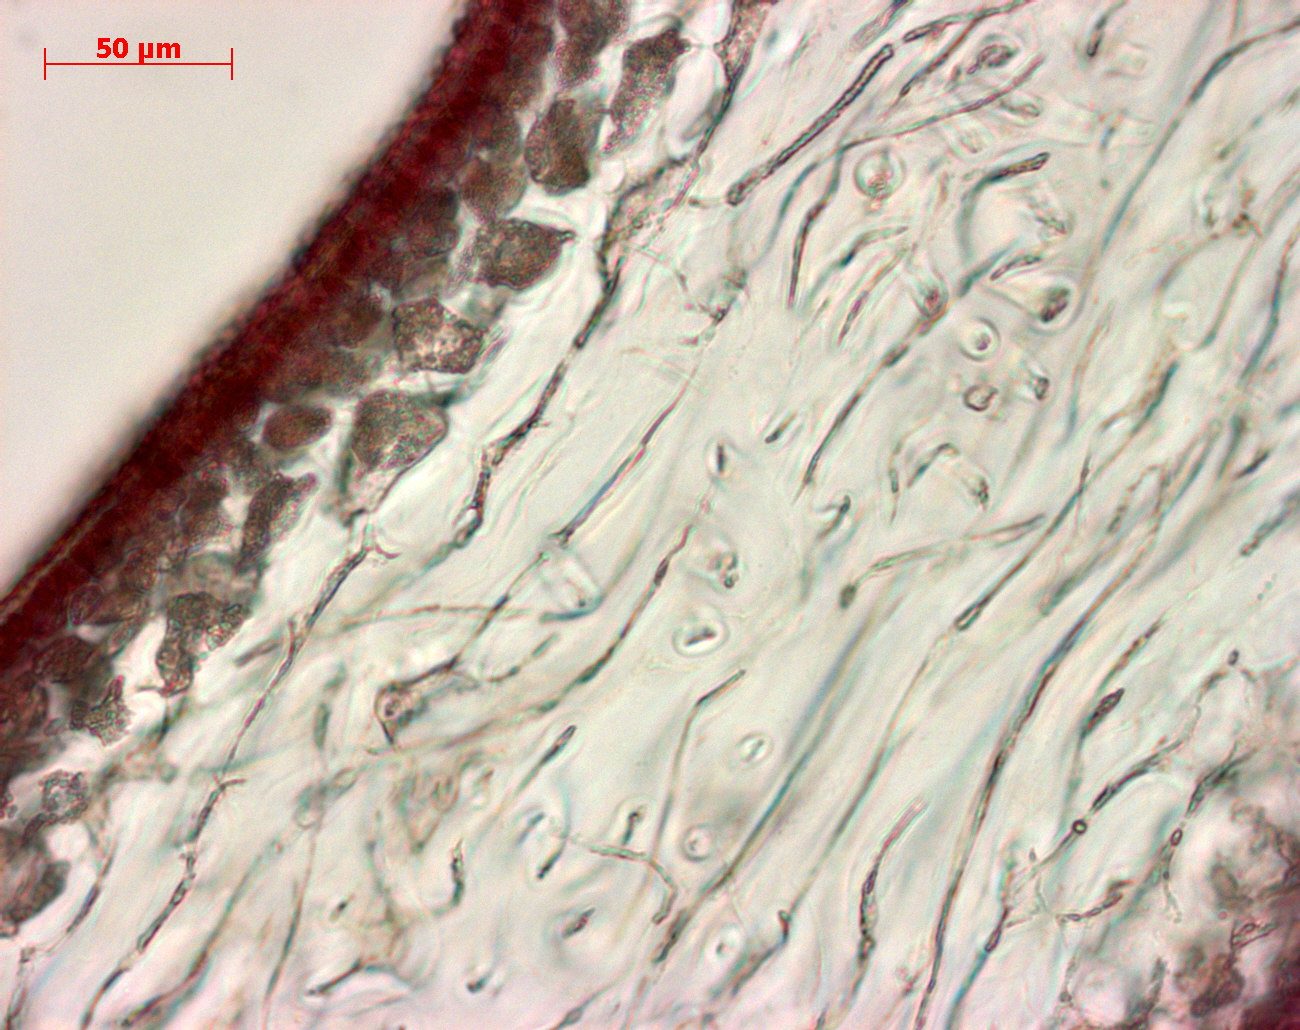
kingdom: Plantae
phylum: Rhodophyta
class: Florideophyceae
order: Gigartinales
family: Kallymeniaceae
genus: Psaromenia
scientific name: Psaromenia berggrenii
